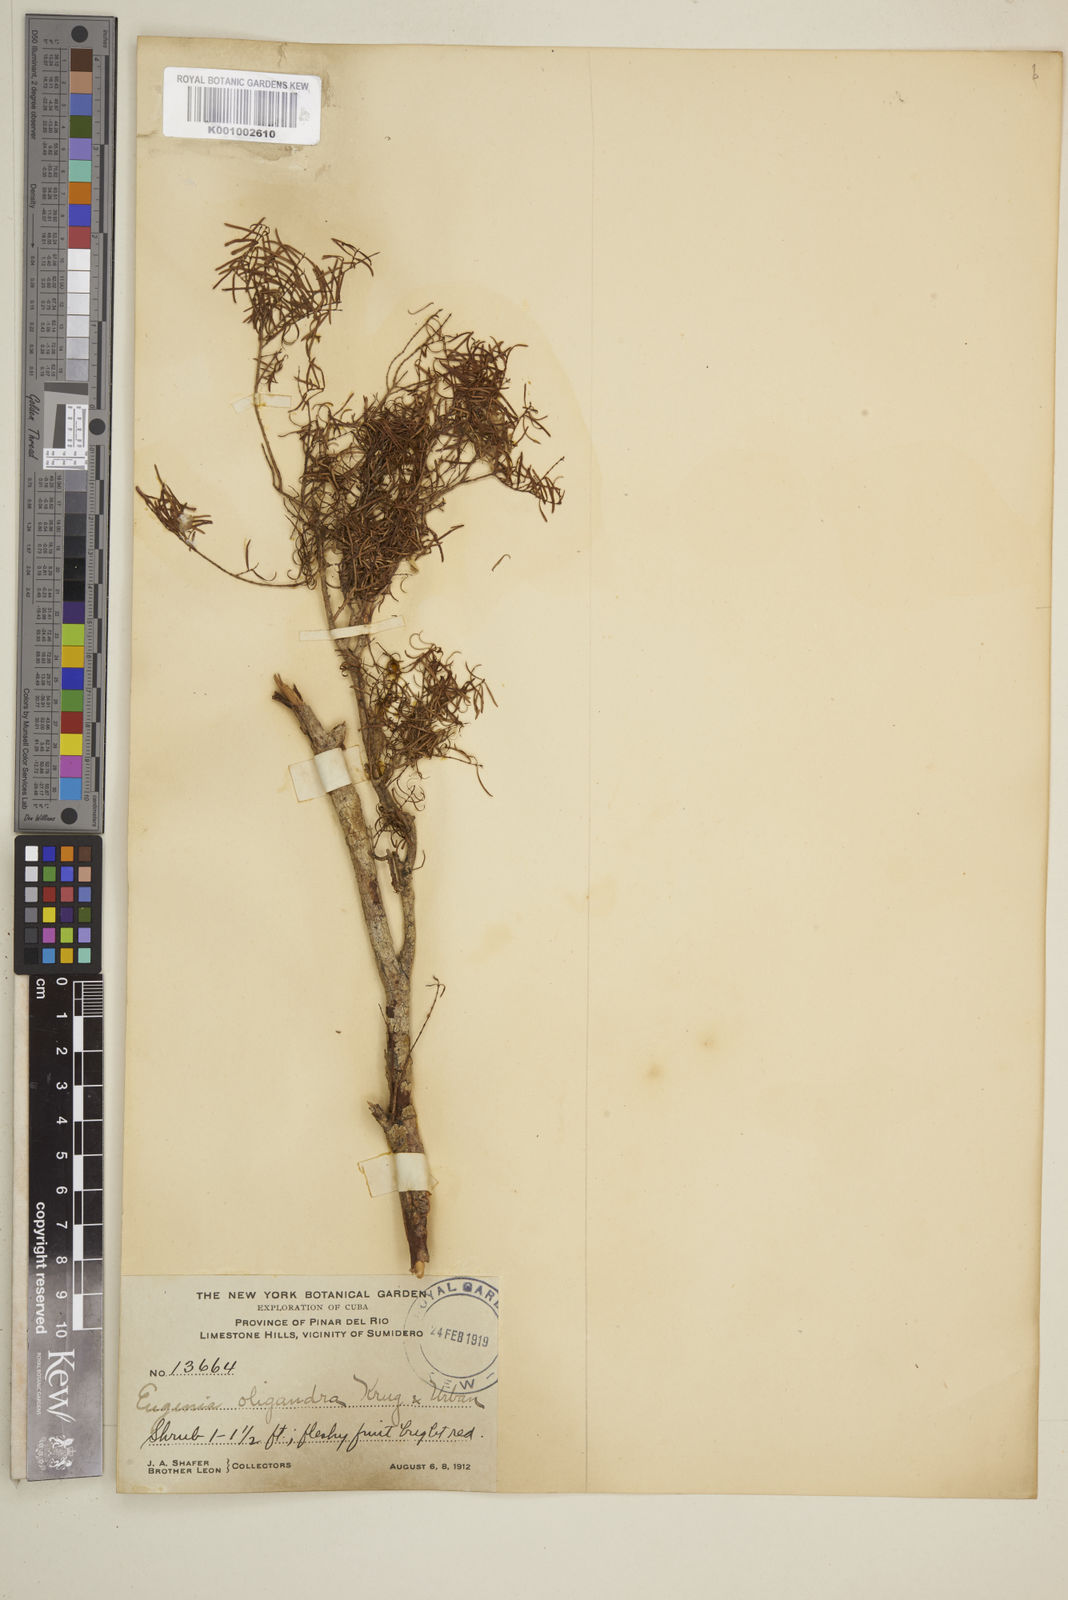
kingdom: Plantae
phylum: Tracheophyta
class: Magnoliopsida
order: Myrtales
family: Myrtaceae
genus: Eugenia
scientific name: Eugenia oligandra
